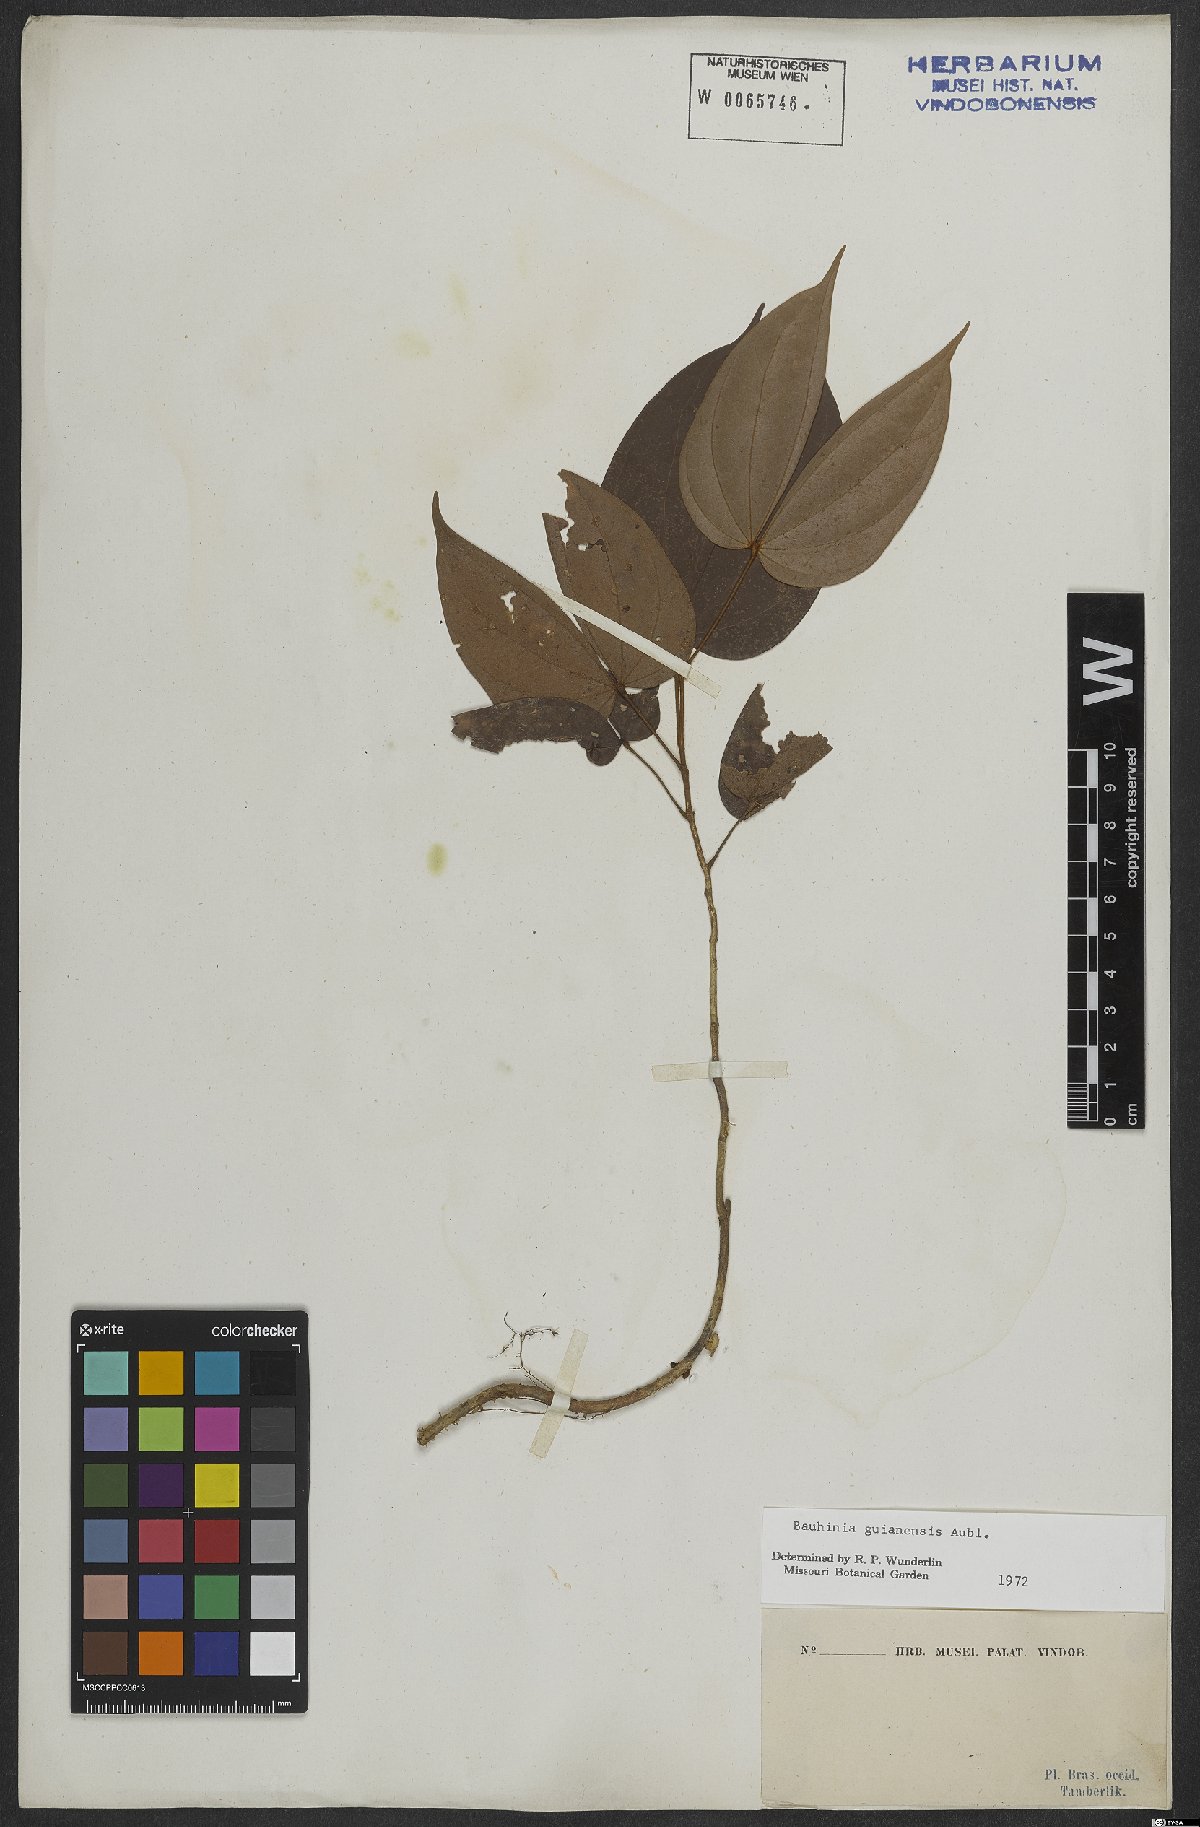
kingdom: Plantae
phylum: Tracheophyta
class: Magnoliopsida
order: Fabales
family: Fabaceae
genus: Schnella
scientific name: Schnella guianensis
